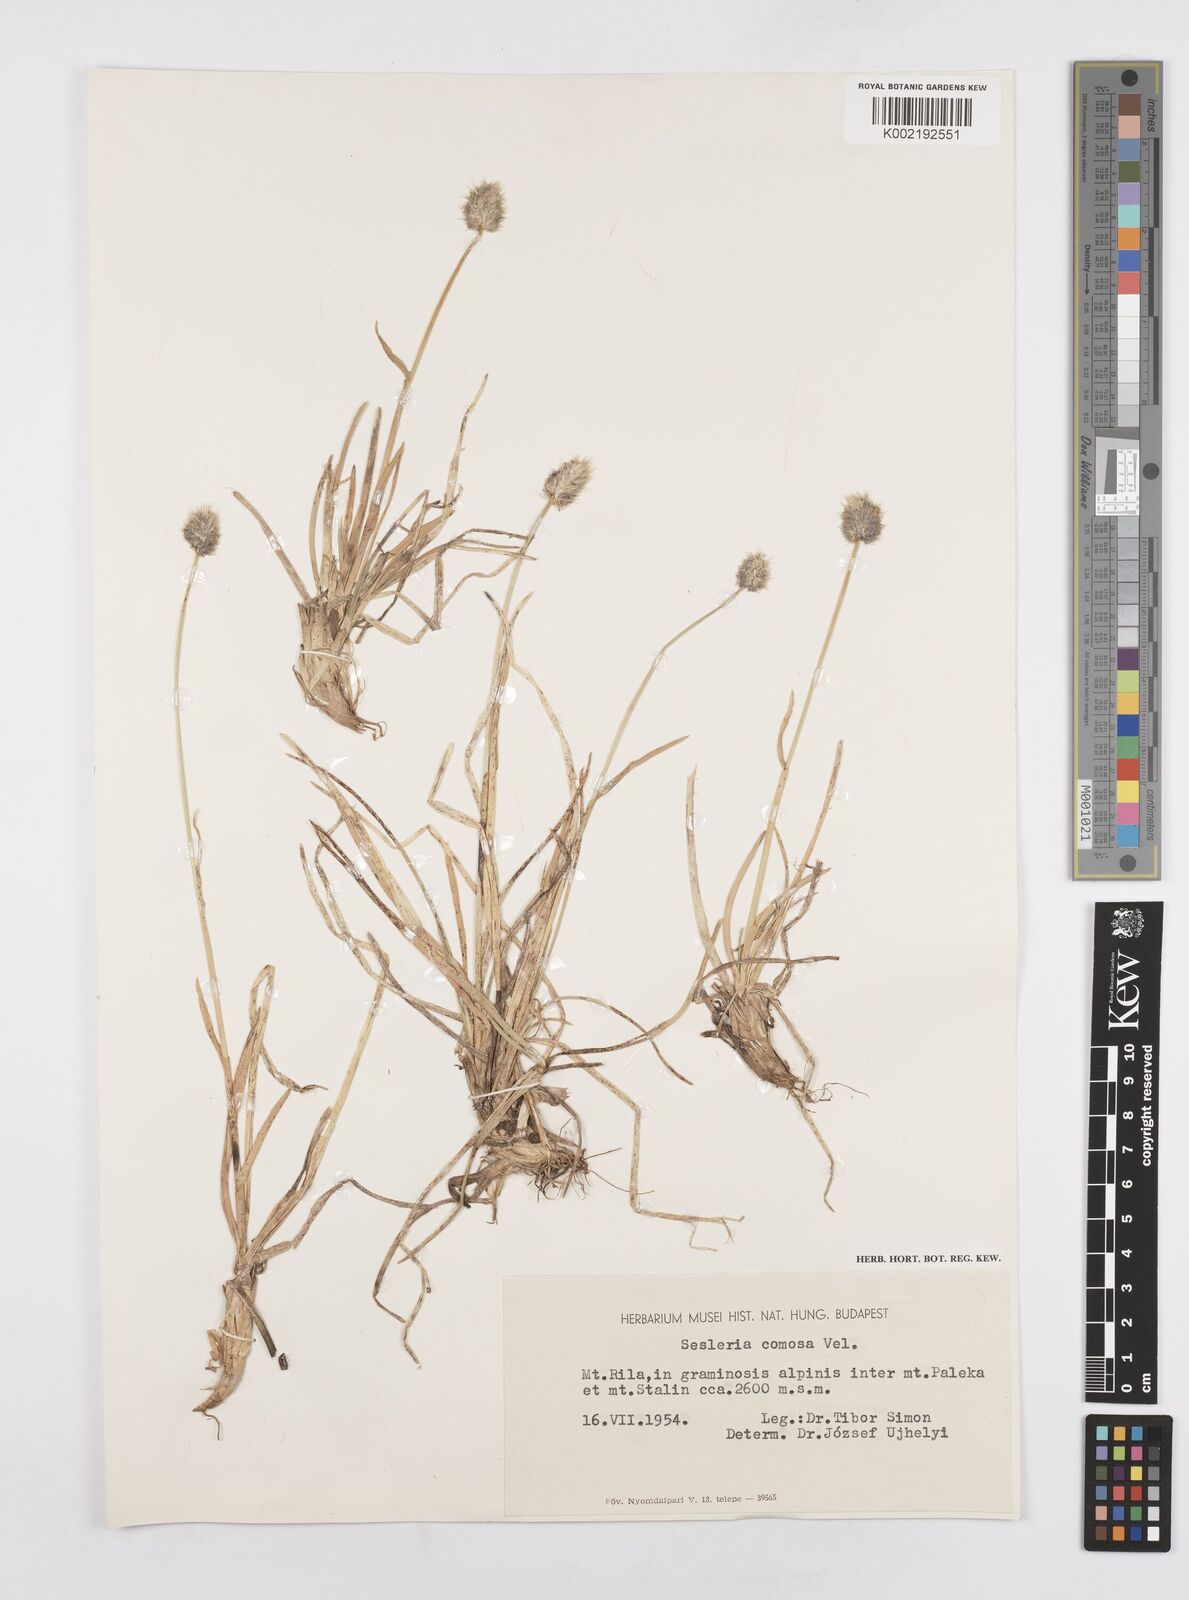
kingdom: Plantae
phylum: Tracheophyta
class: Liliopsida
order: Poales
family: Poaceae
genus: Sesleria
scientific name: Sesleria comosa
